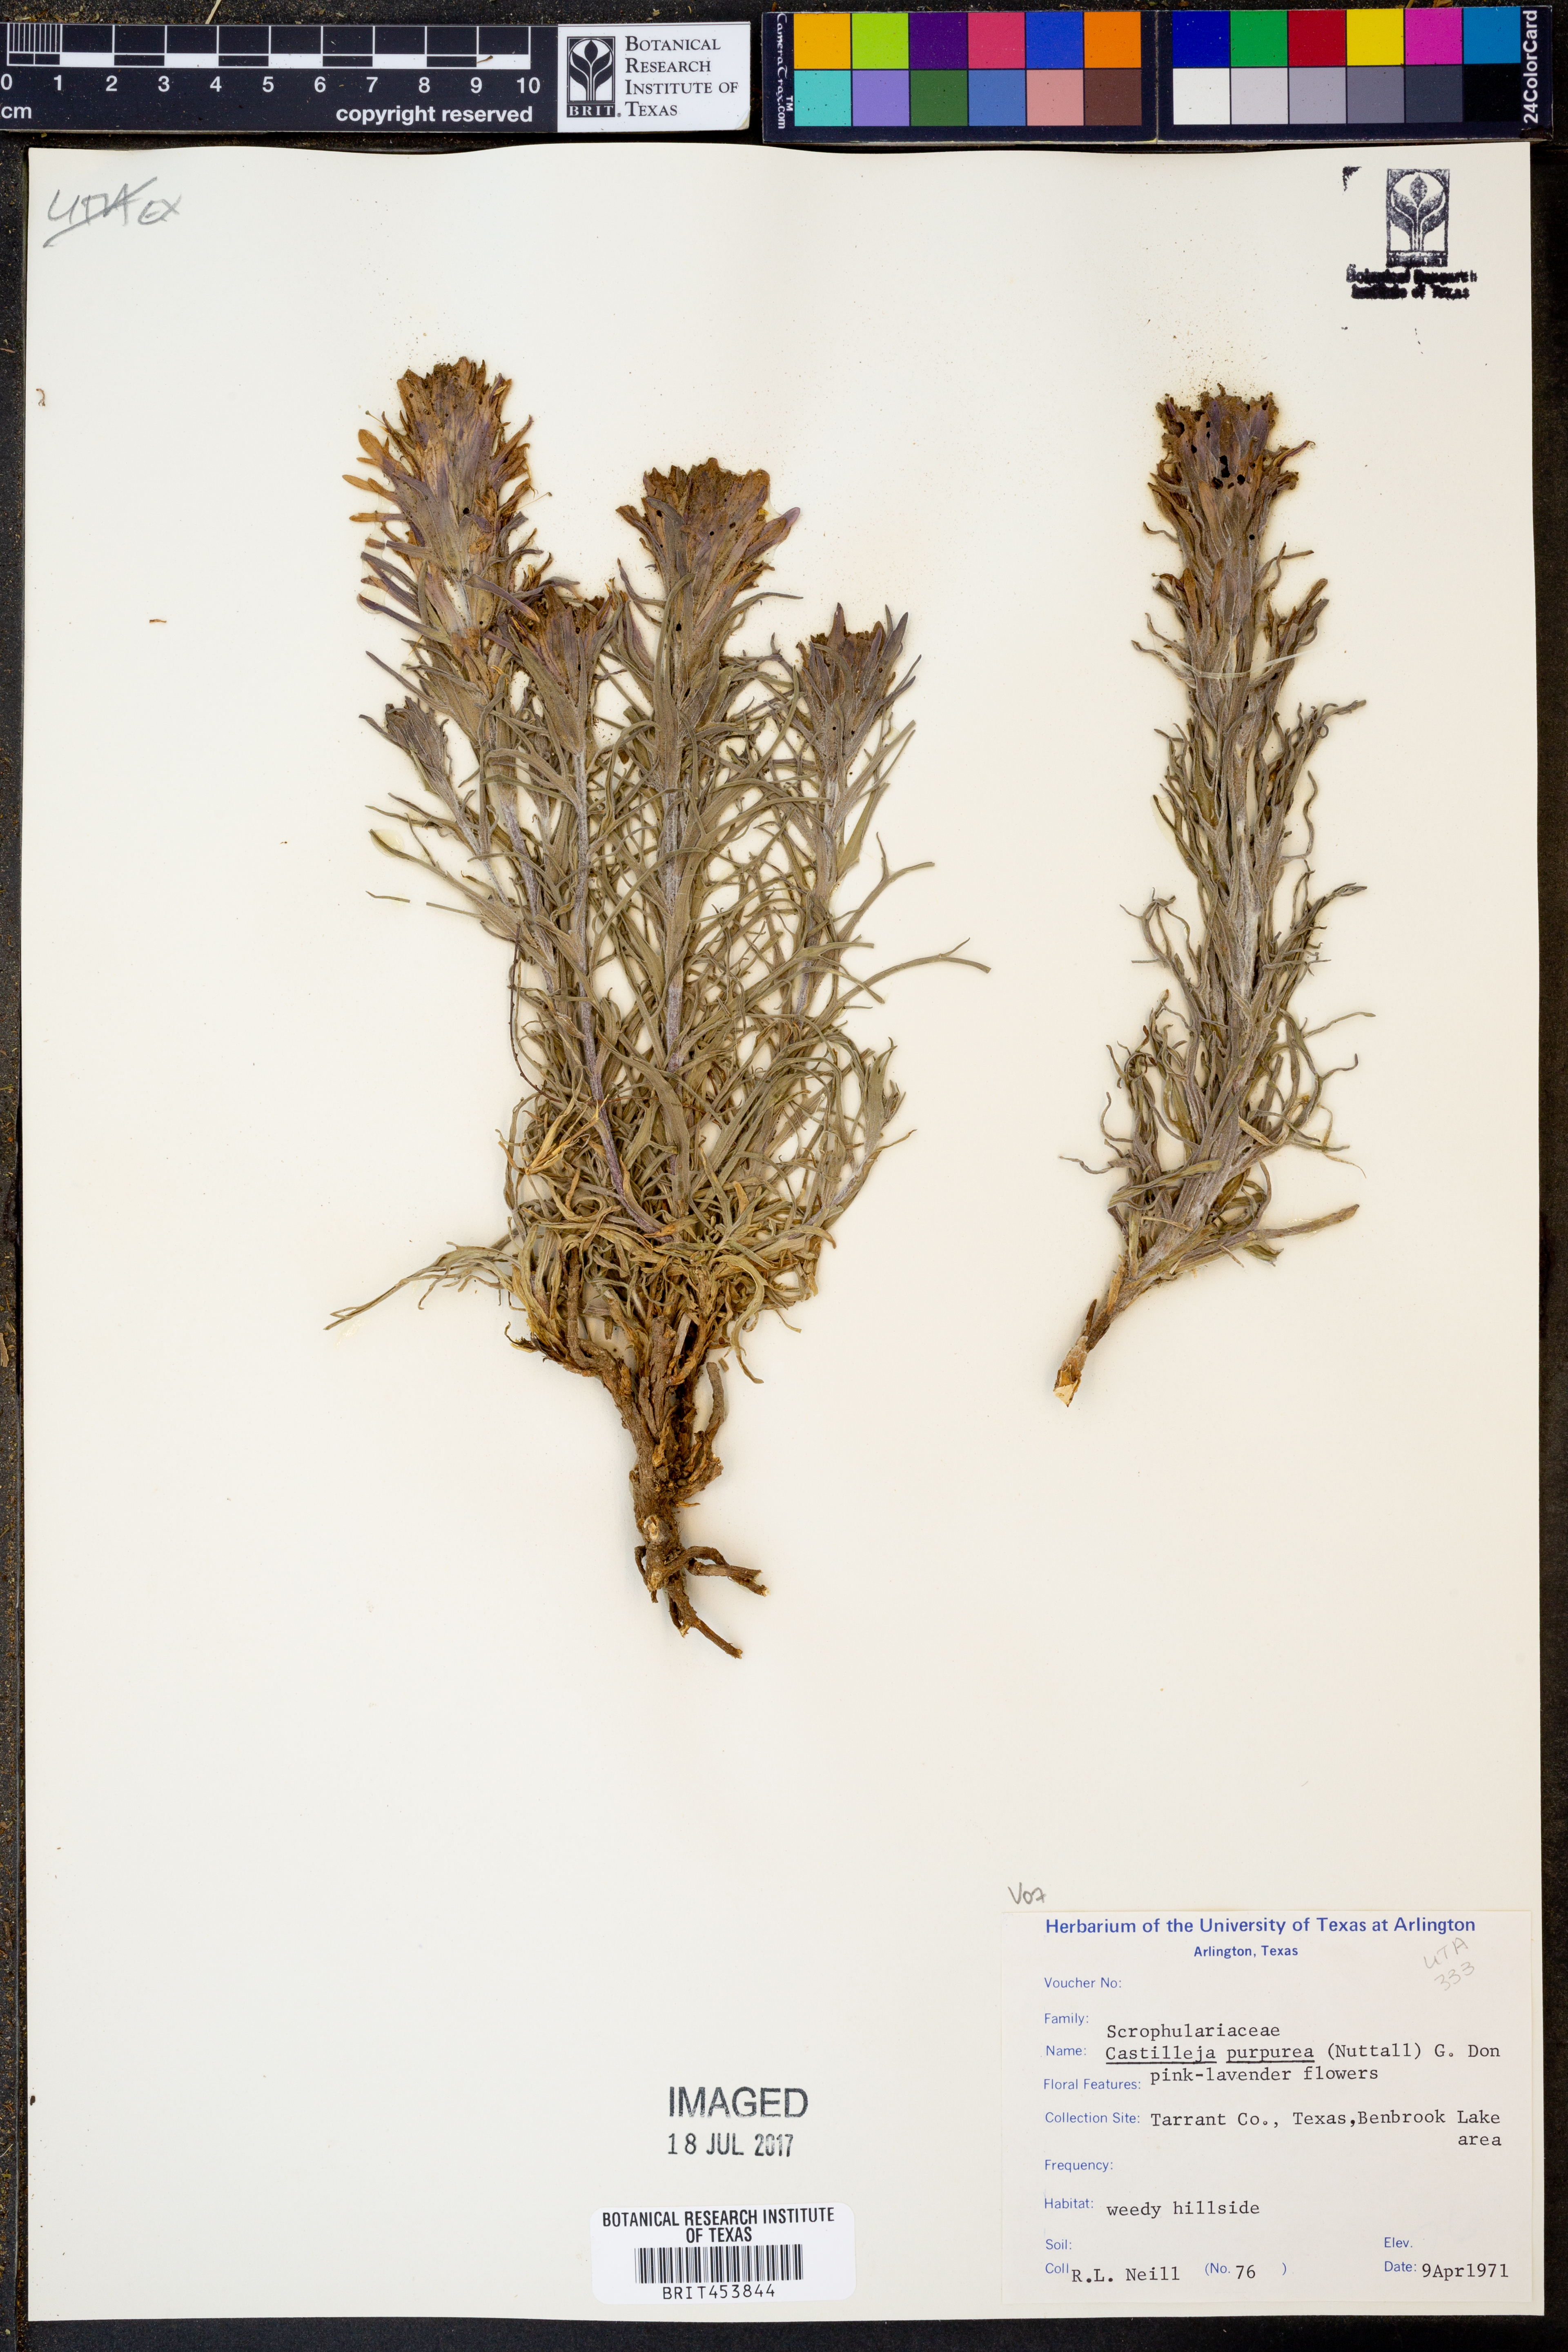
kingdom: Plantae
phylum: Tracheophyta
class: Magnoliopsida
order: Lamiales
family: Orobanchaceae
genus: Castilleja
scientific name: Castilleja purpurea
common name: Plains paintbrush
